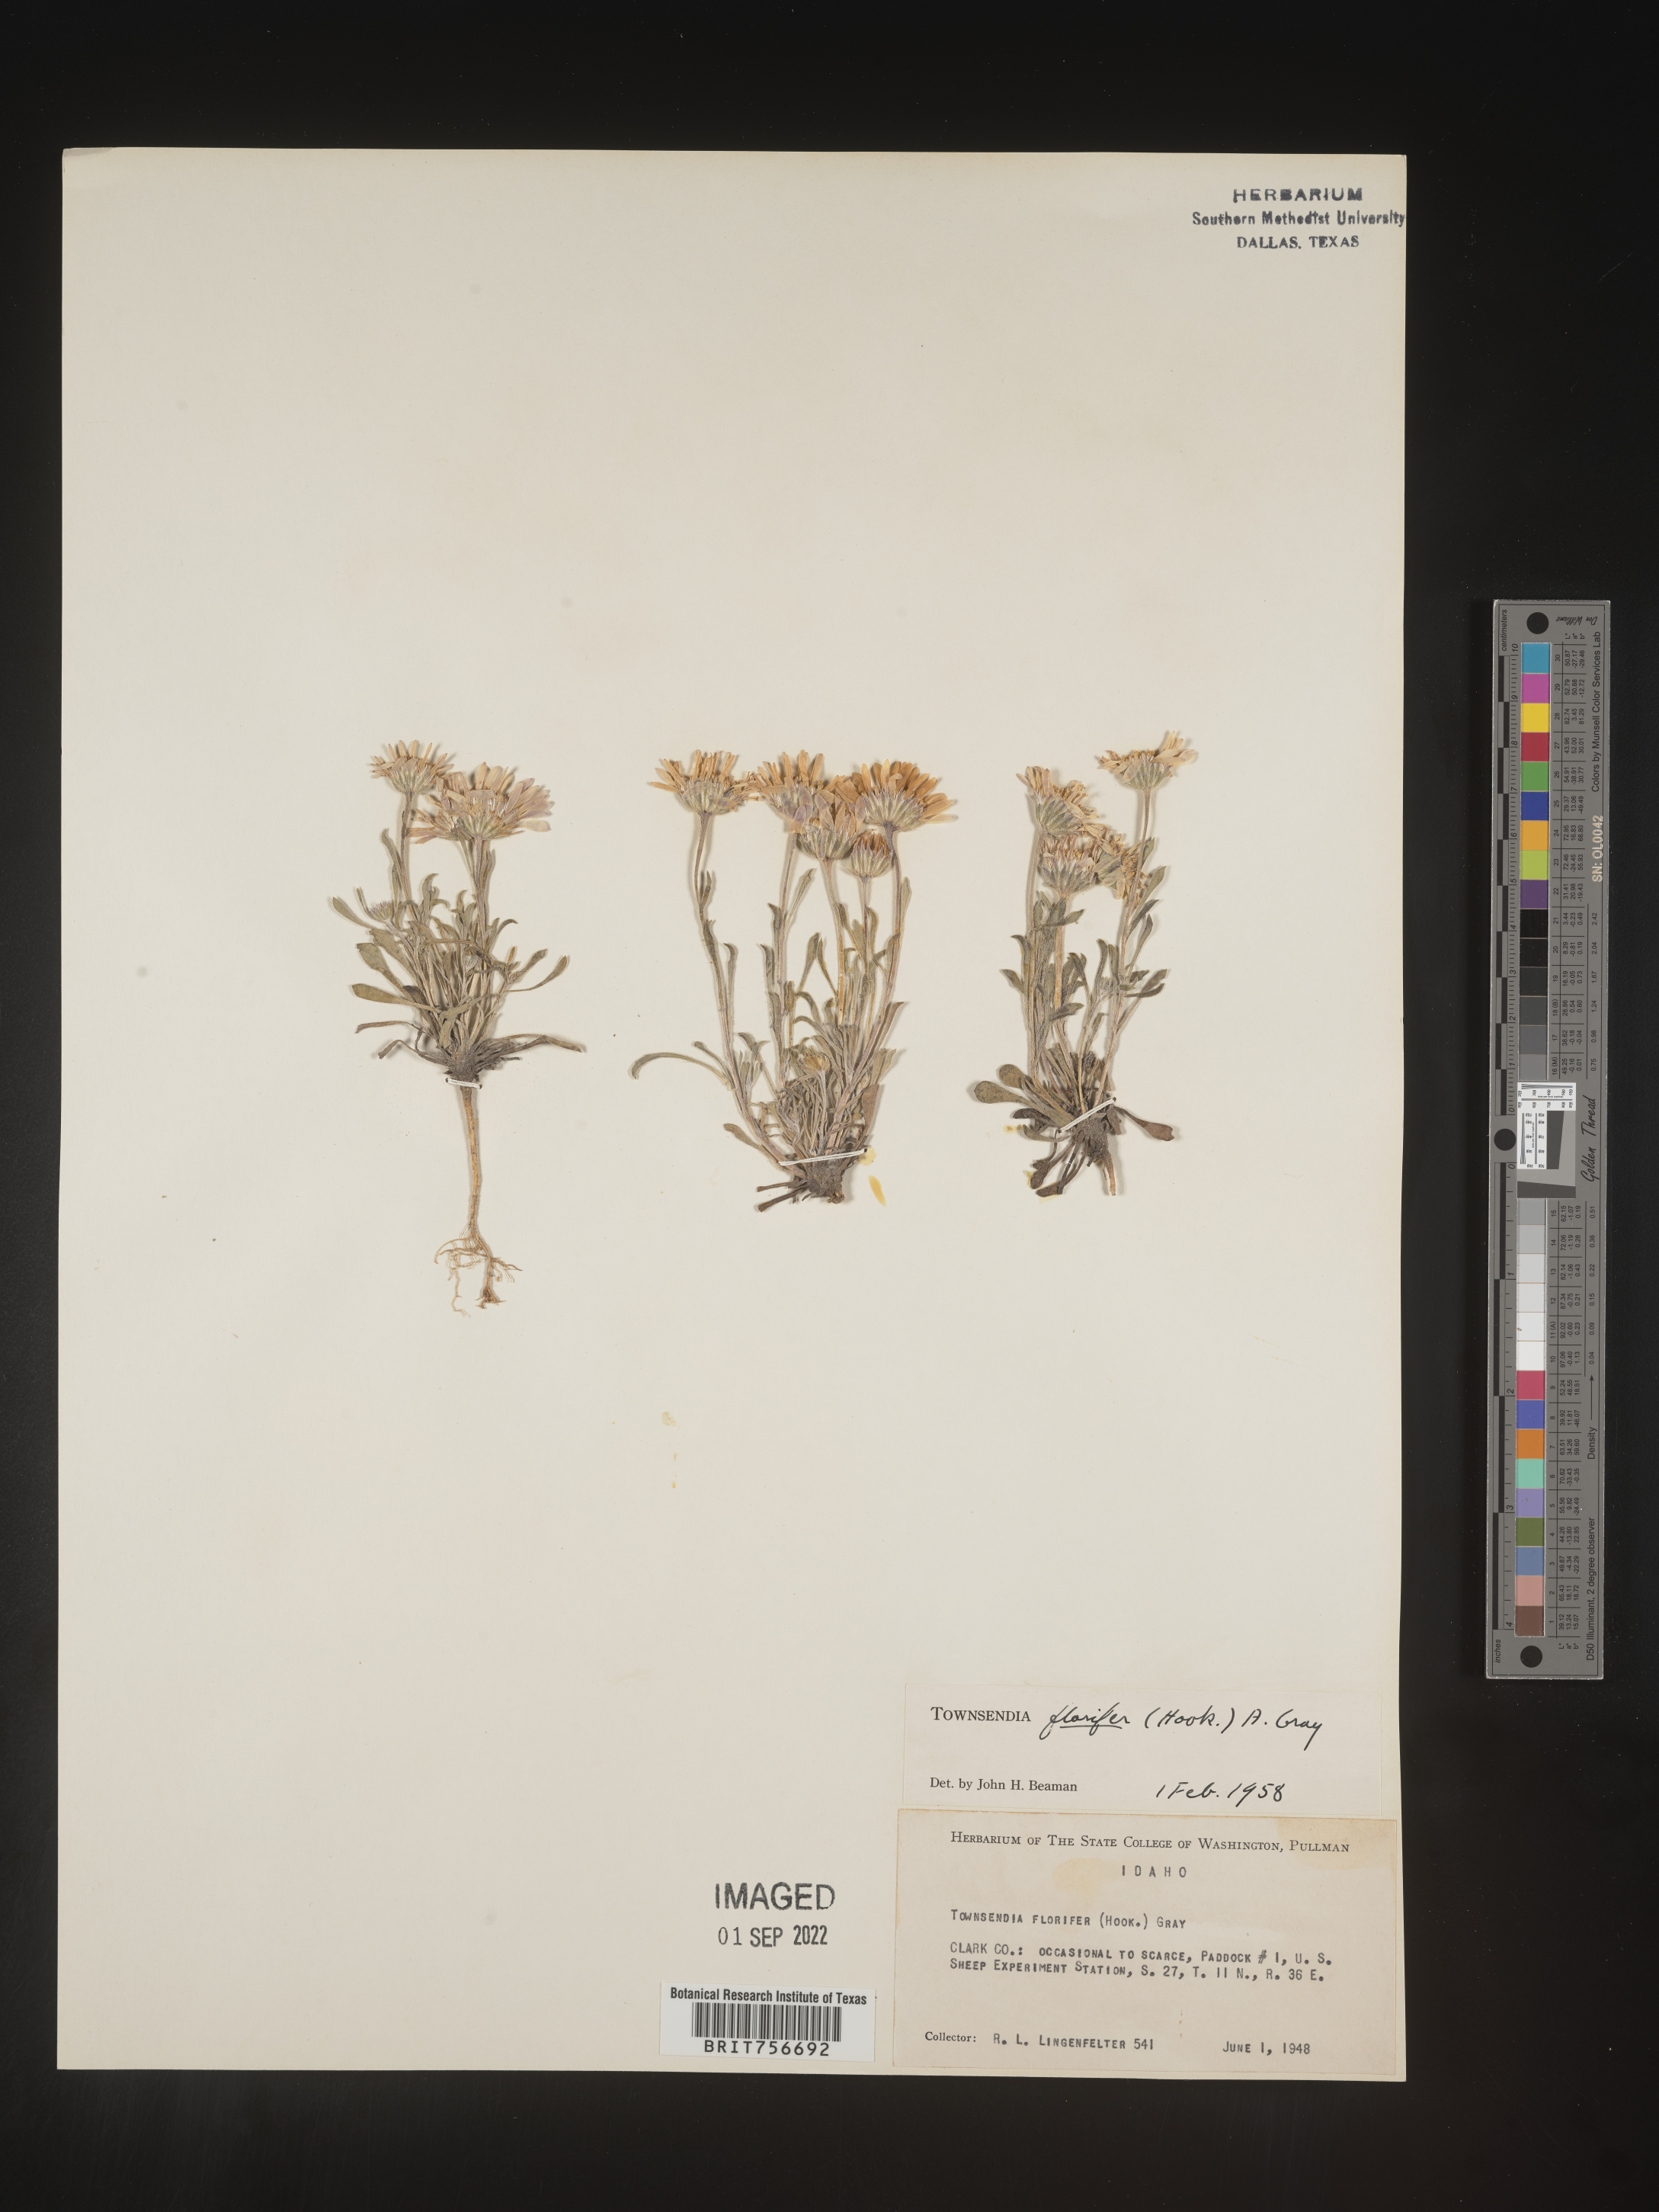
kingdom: Plantae
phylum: Tracheophyta
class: Magnoliopsida
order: Asterales
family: Asteraceae
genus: Townsendia
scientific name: Townsendia florifer
